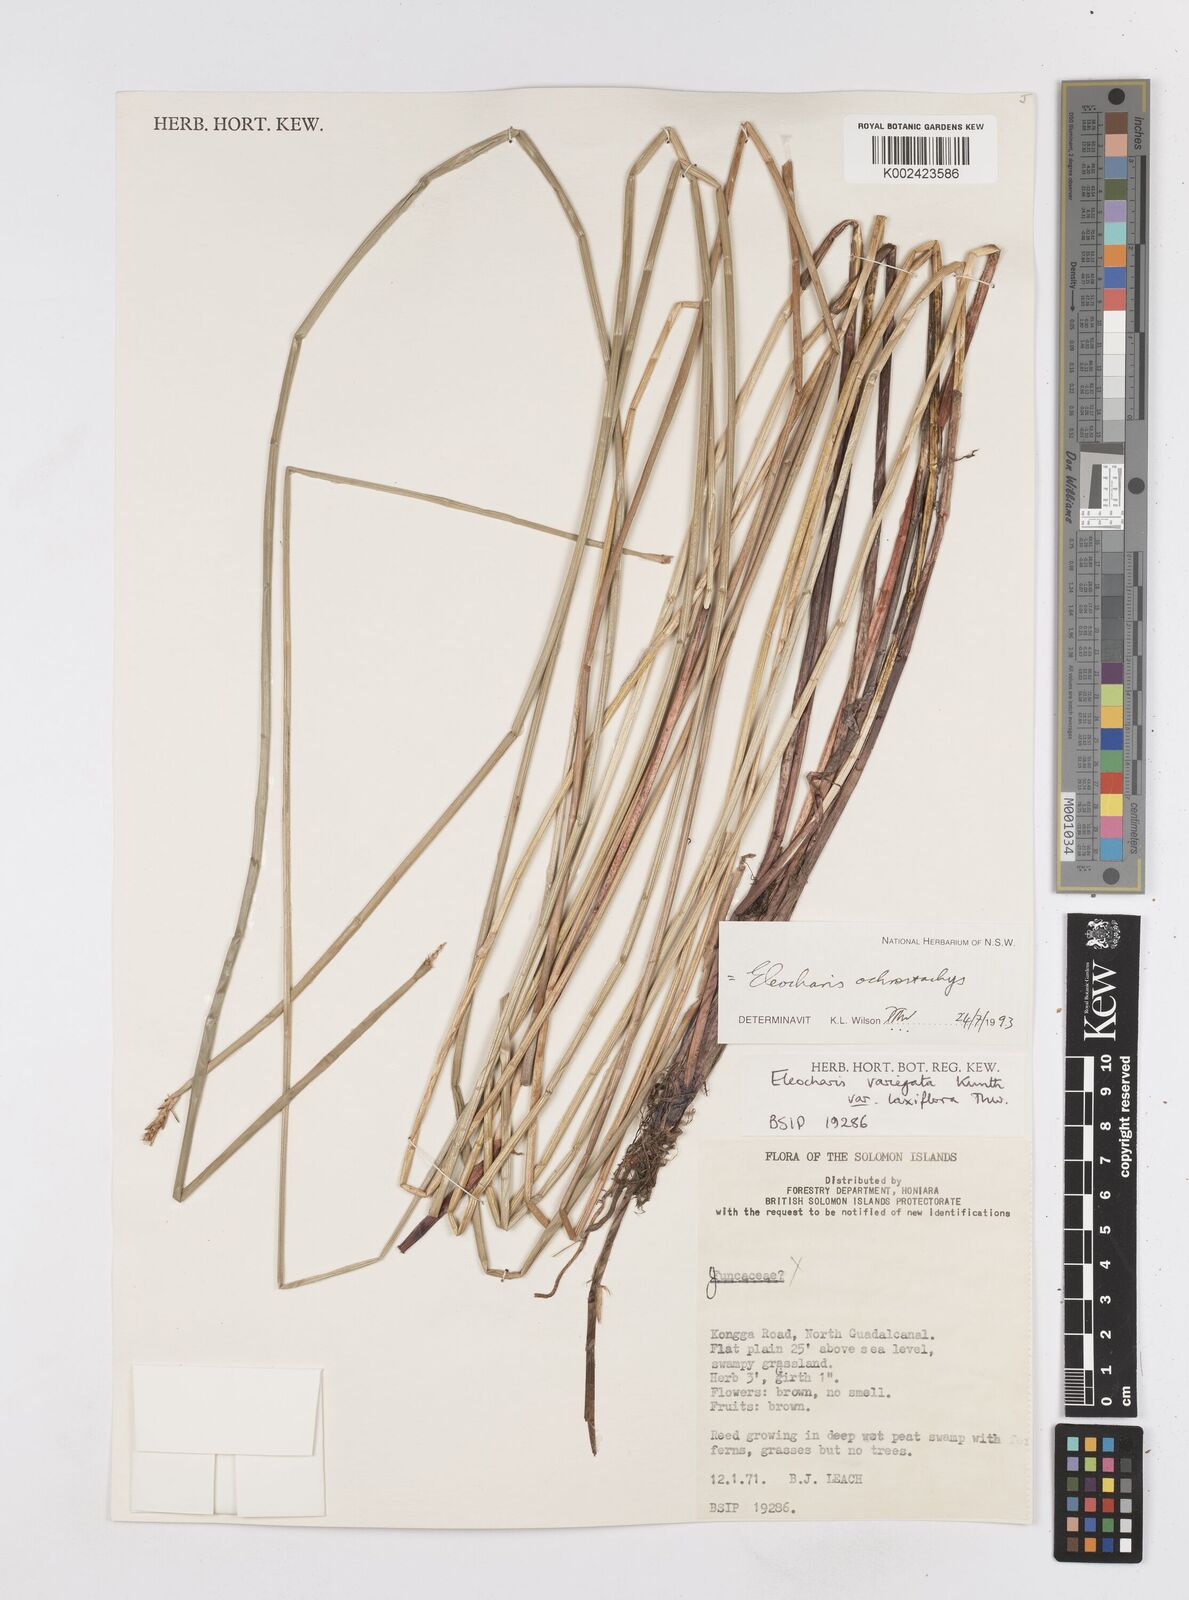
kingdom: Plantae
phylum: Tracheophyta
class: Liliopsida
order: Poales
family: Cyperaceae
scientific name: Cyperaceae
